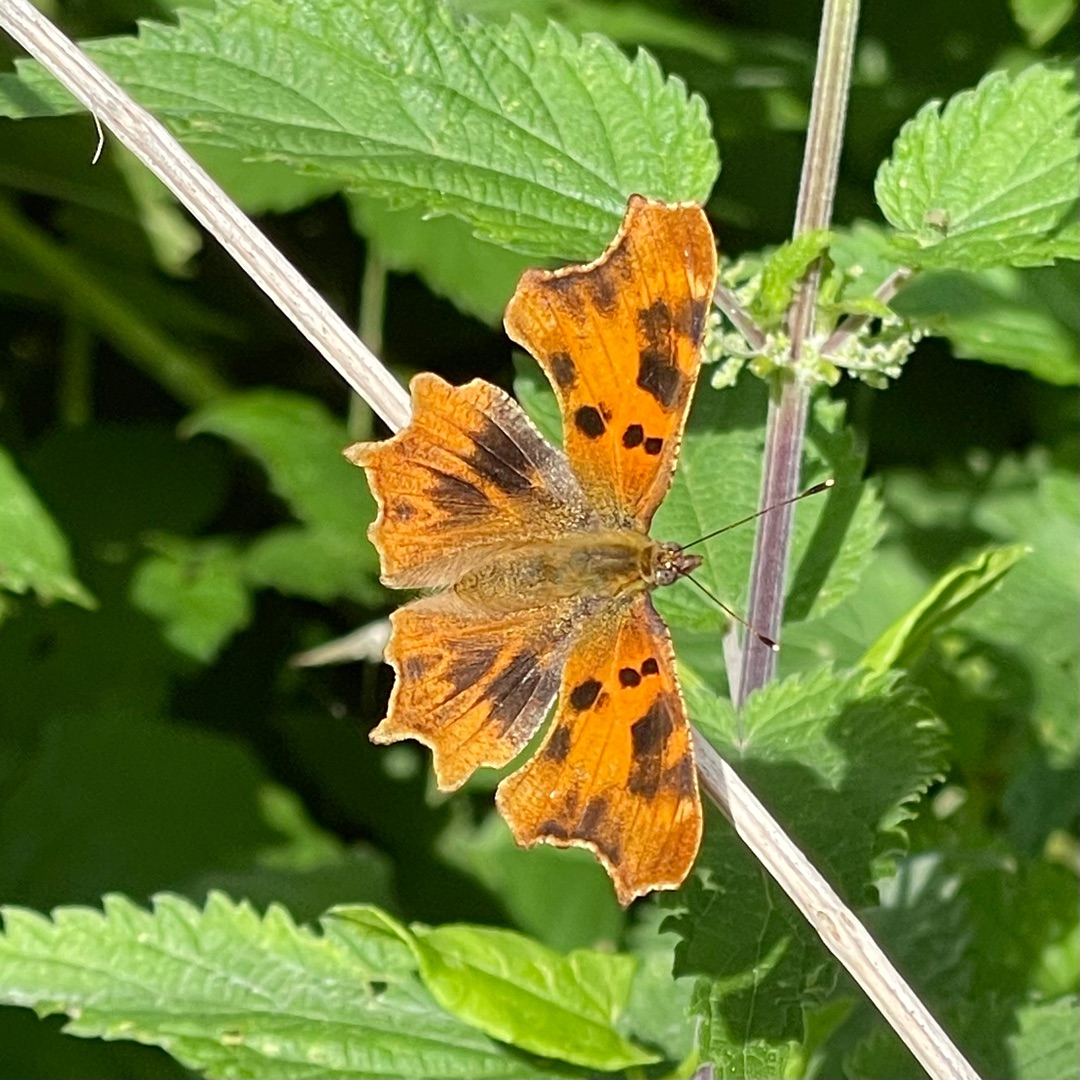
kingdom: Animalia
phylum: Arthropoda
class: Insecta
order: Lepidoptera
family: Nymphalidae
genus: Polygonia
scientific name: Polygonia c-album
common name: Det hvide C
